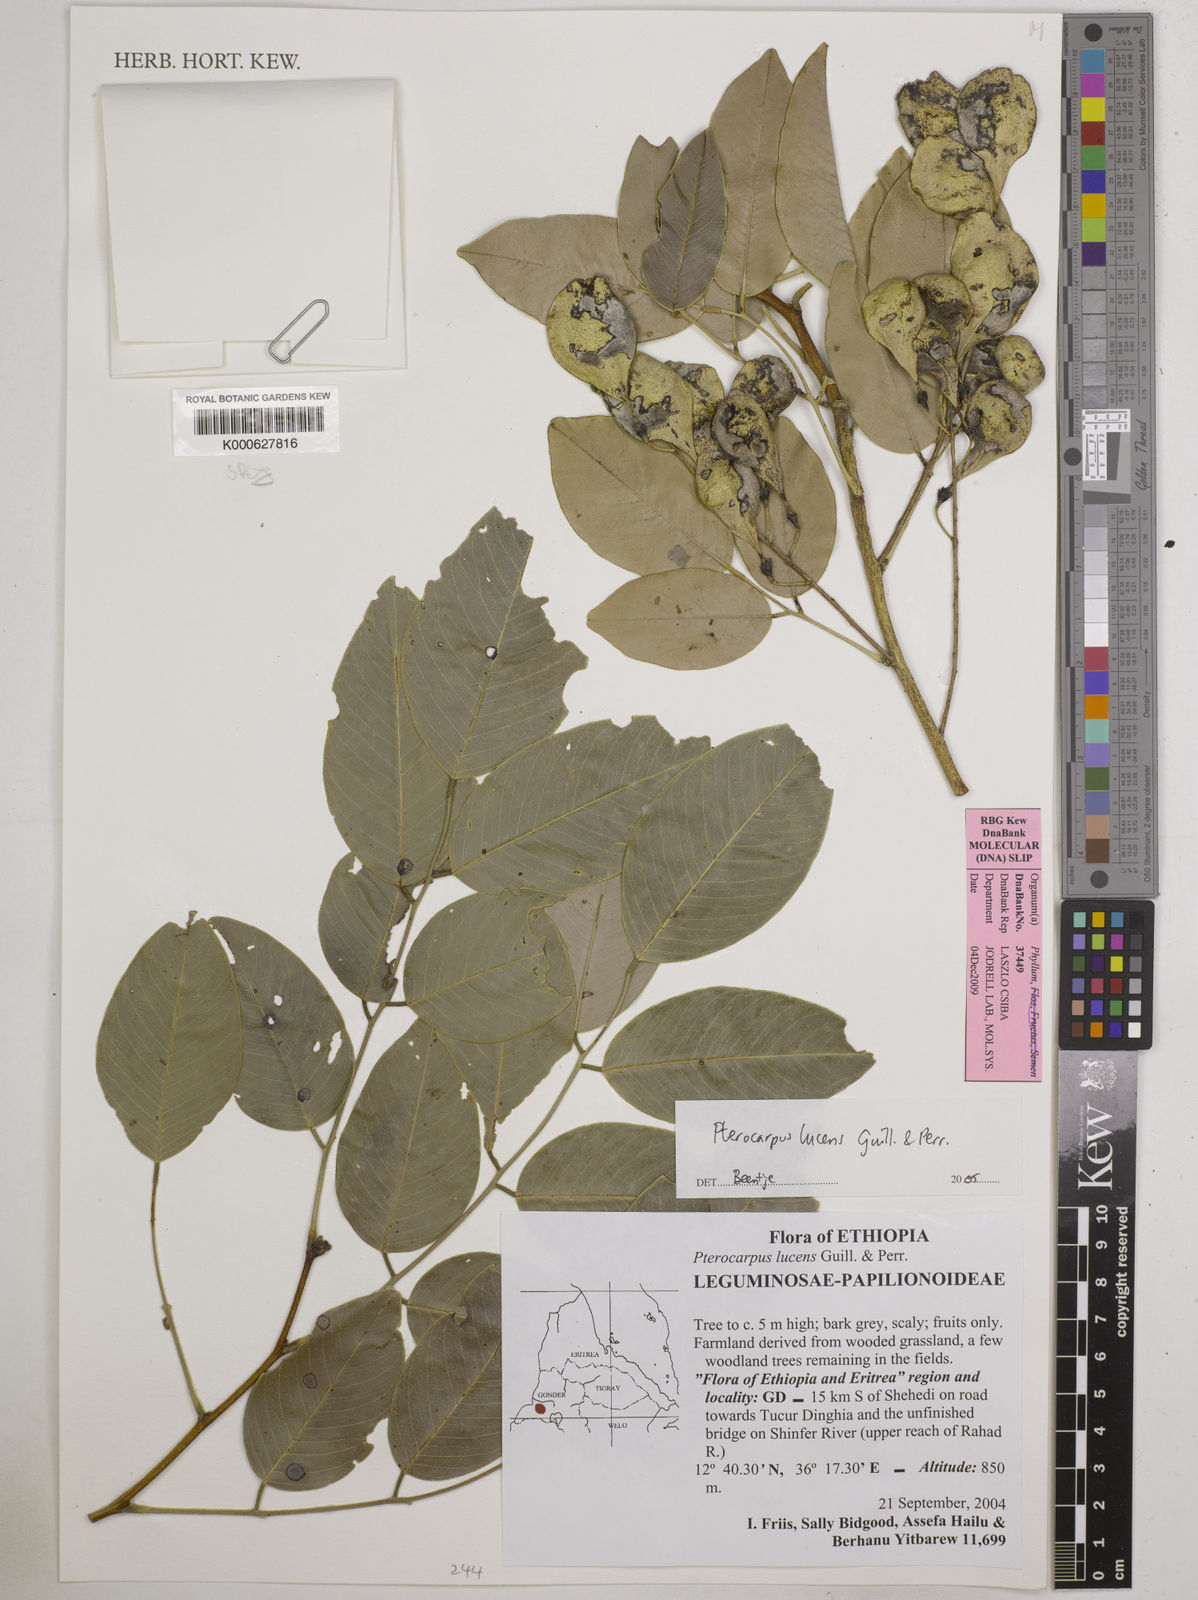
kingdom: Plantae
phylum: Tracheophyta
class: Magnoliopsida
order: Fabales
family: Fabaceae
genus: Pterocarpus
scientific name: Pterocarpus lucens
